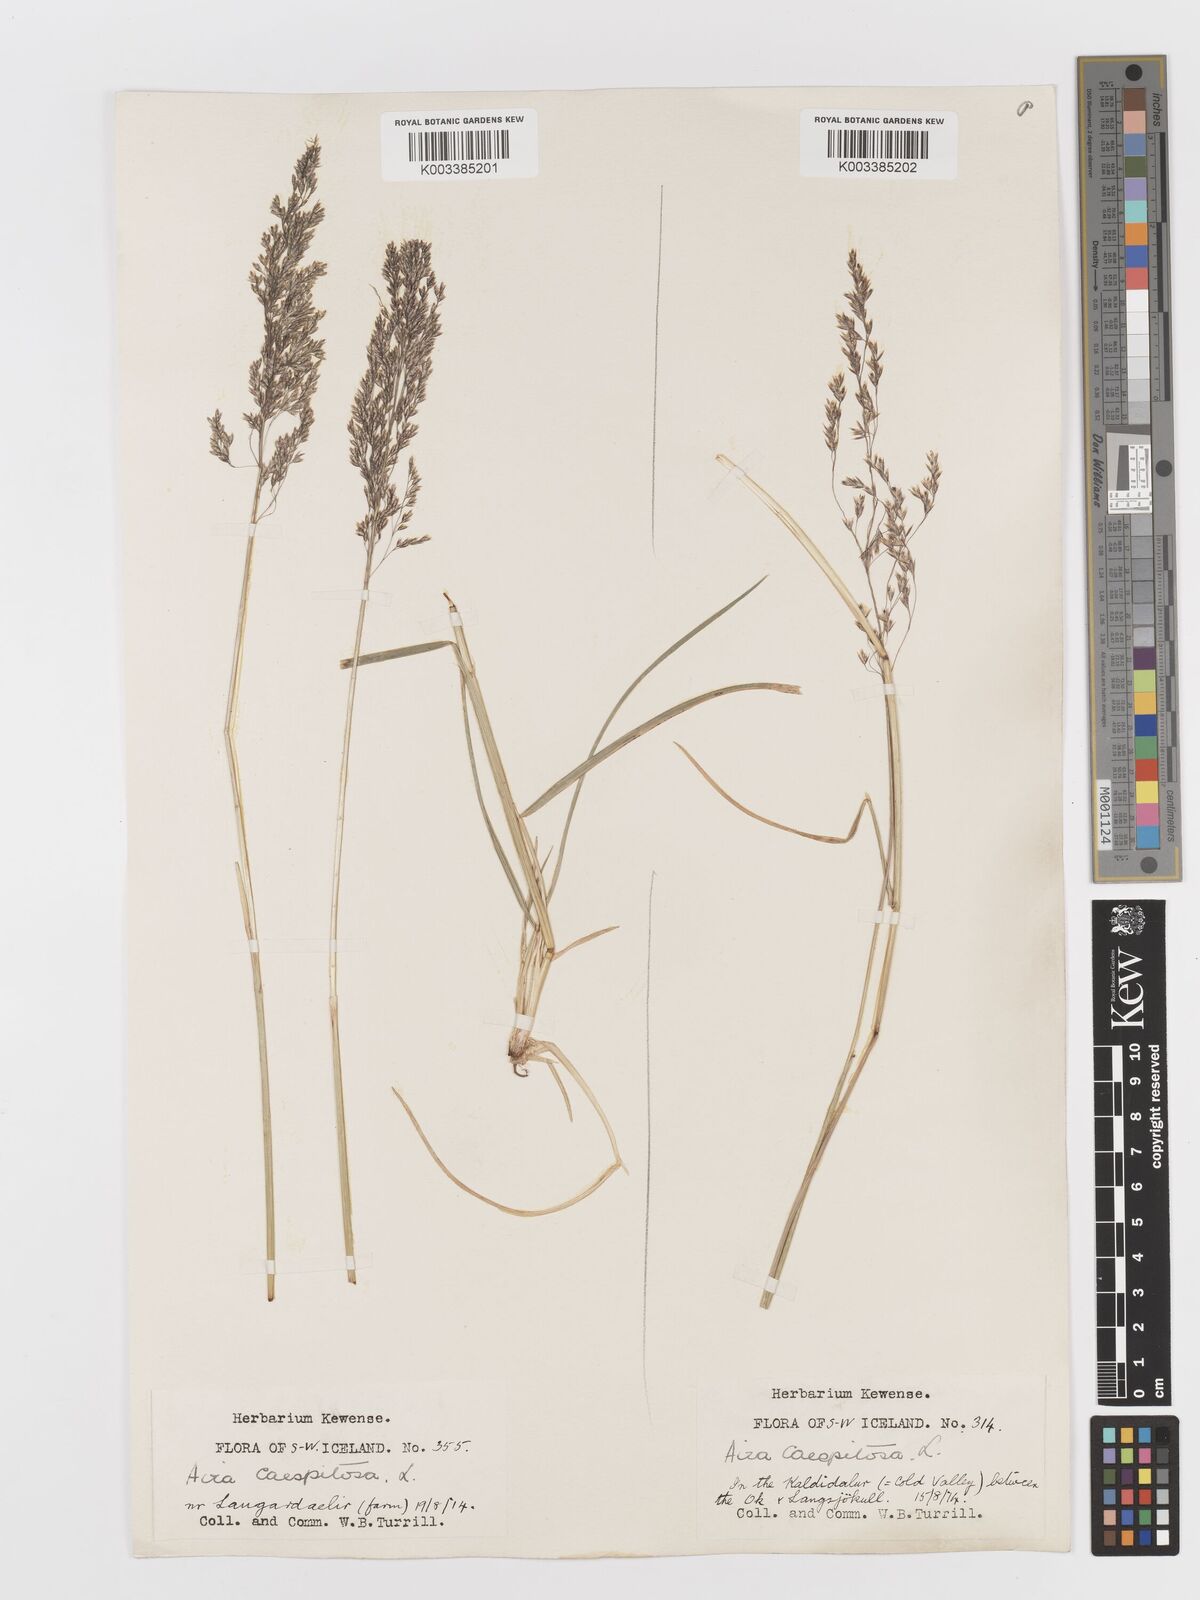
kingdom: Plantae
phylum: Tracheophyta
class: Liliopsida
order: Poales
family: Poaceae
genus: Deschampsia
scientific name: Deschampsia cespitosa
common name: Tufted hair-grass
